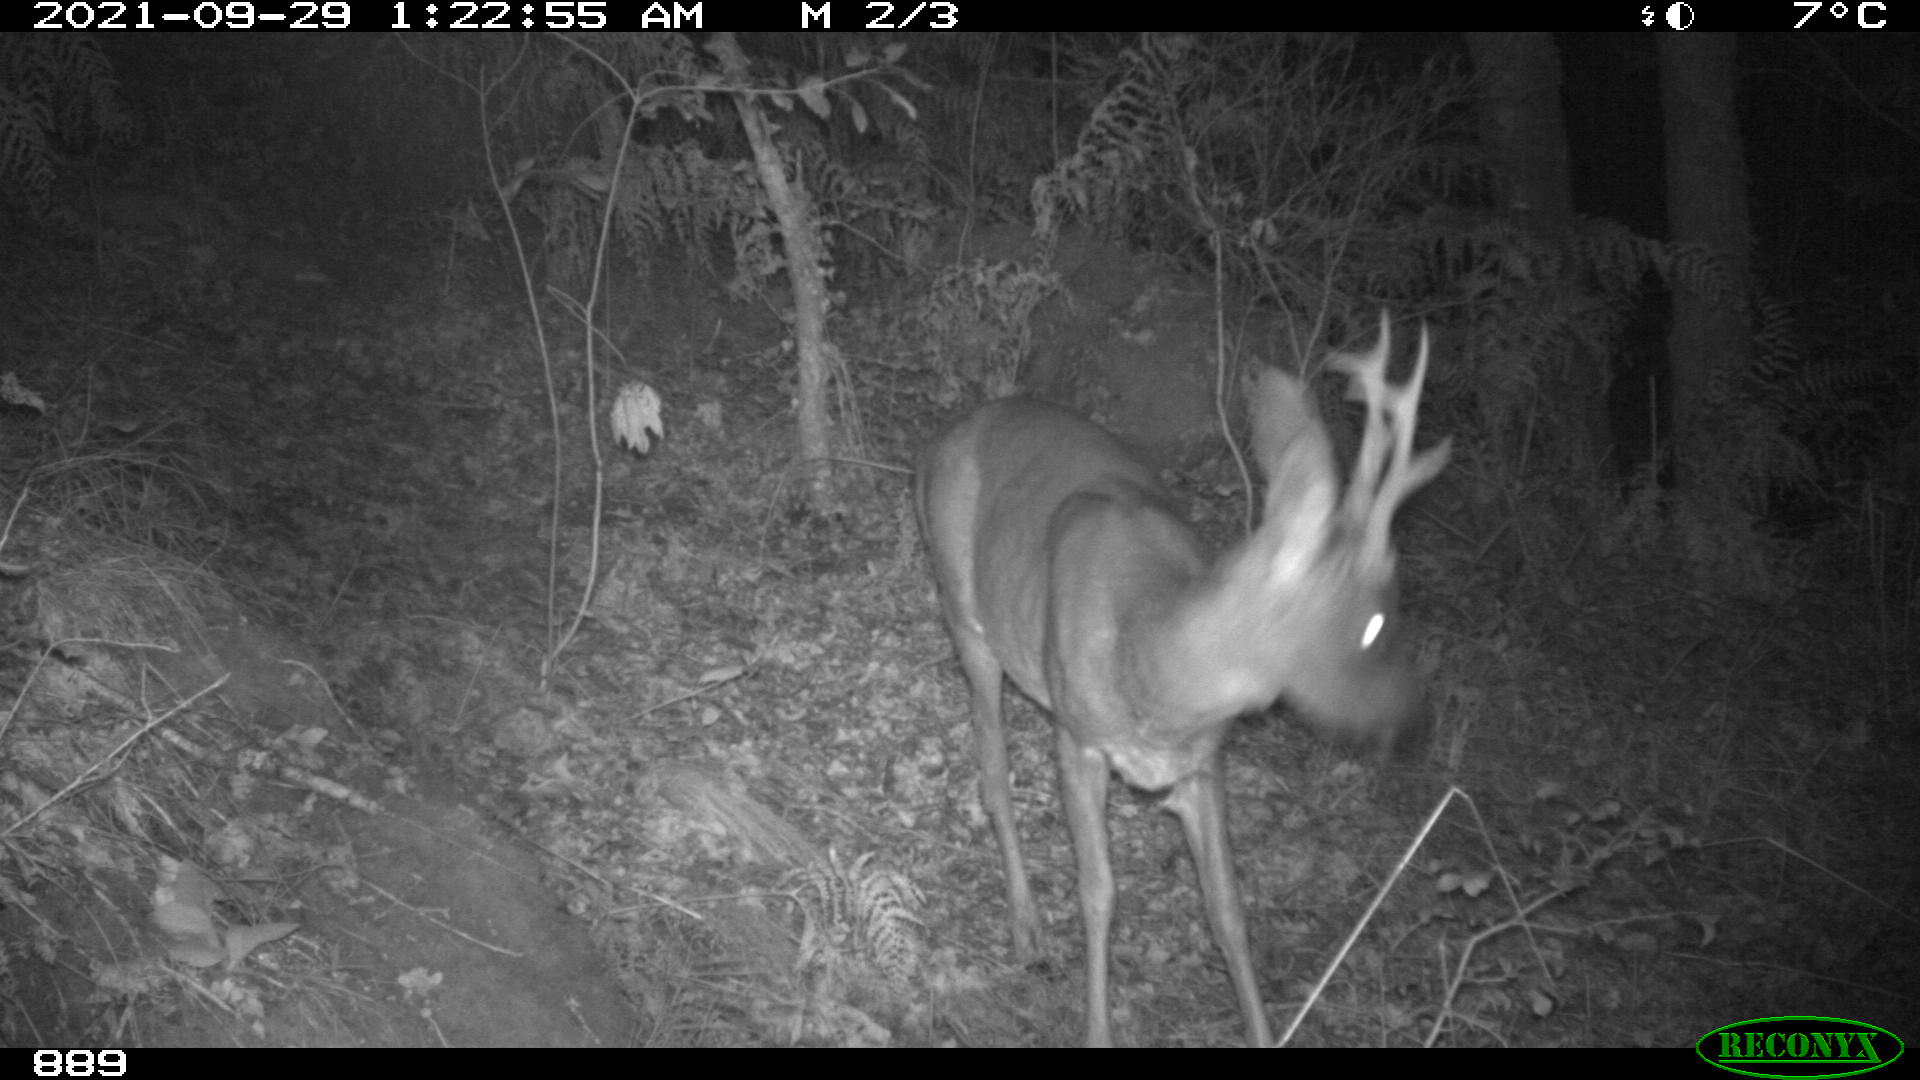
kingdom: Animalia
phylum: Chordata
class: Mammalia
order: Artiodactyla
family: Cervidae
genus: Capreolus
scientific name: Capreolus capreolus
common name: Western roe deer
